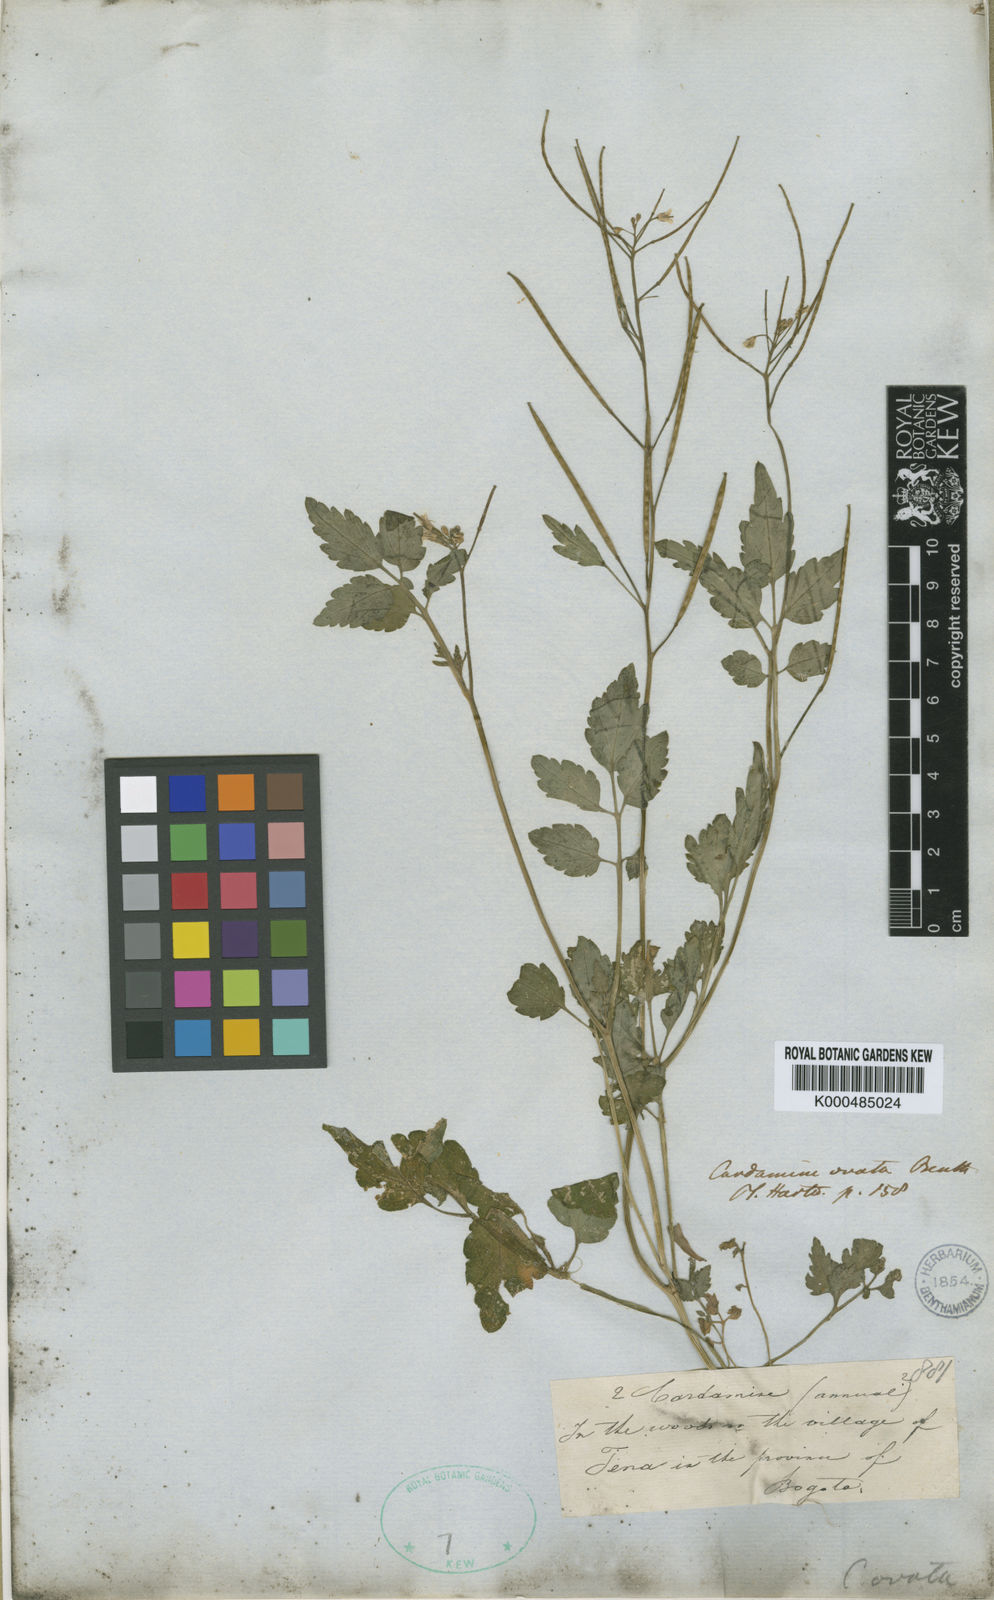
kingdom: Plantae
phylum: Tracheophyta
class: Magnoliopsida
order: Brassicales
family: Brassicaceae
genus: Cardamine
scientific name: Cardamine ovata
